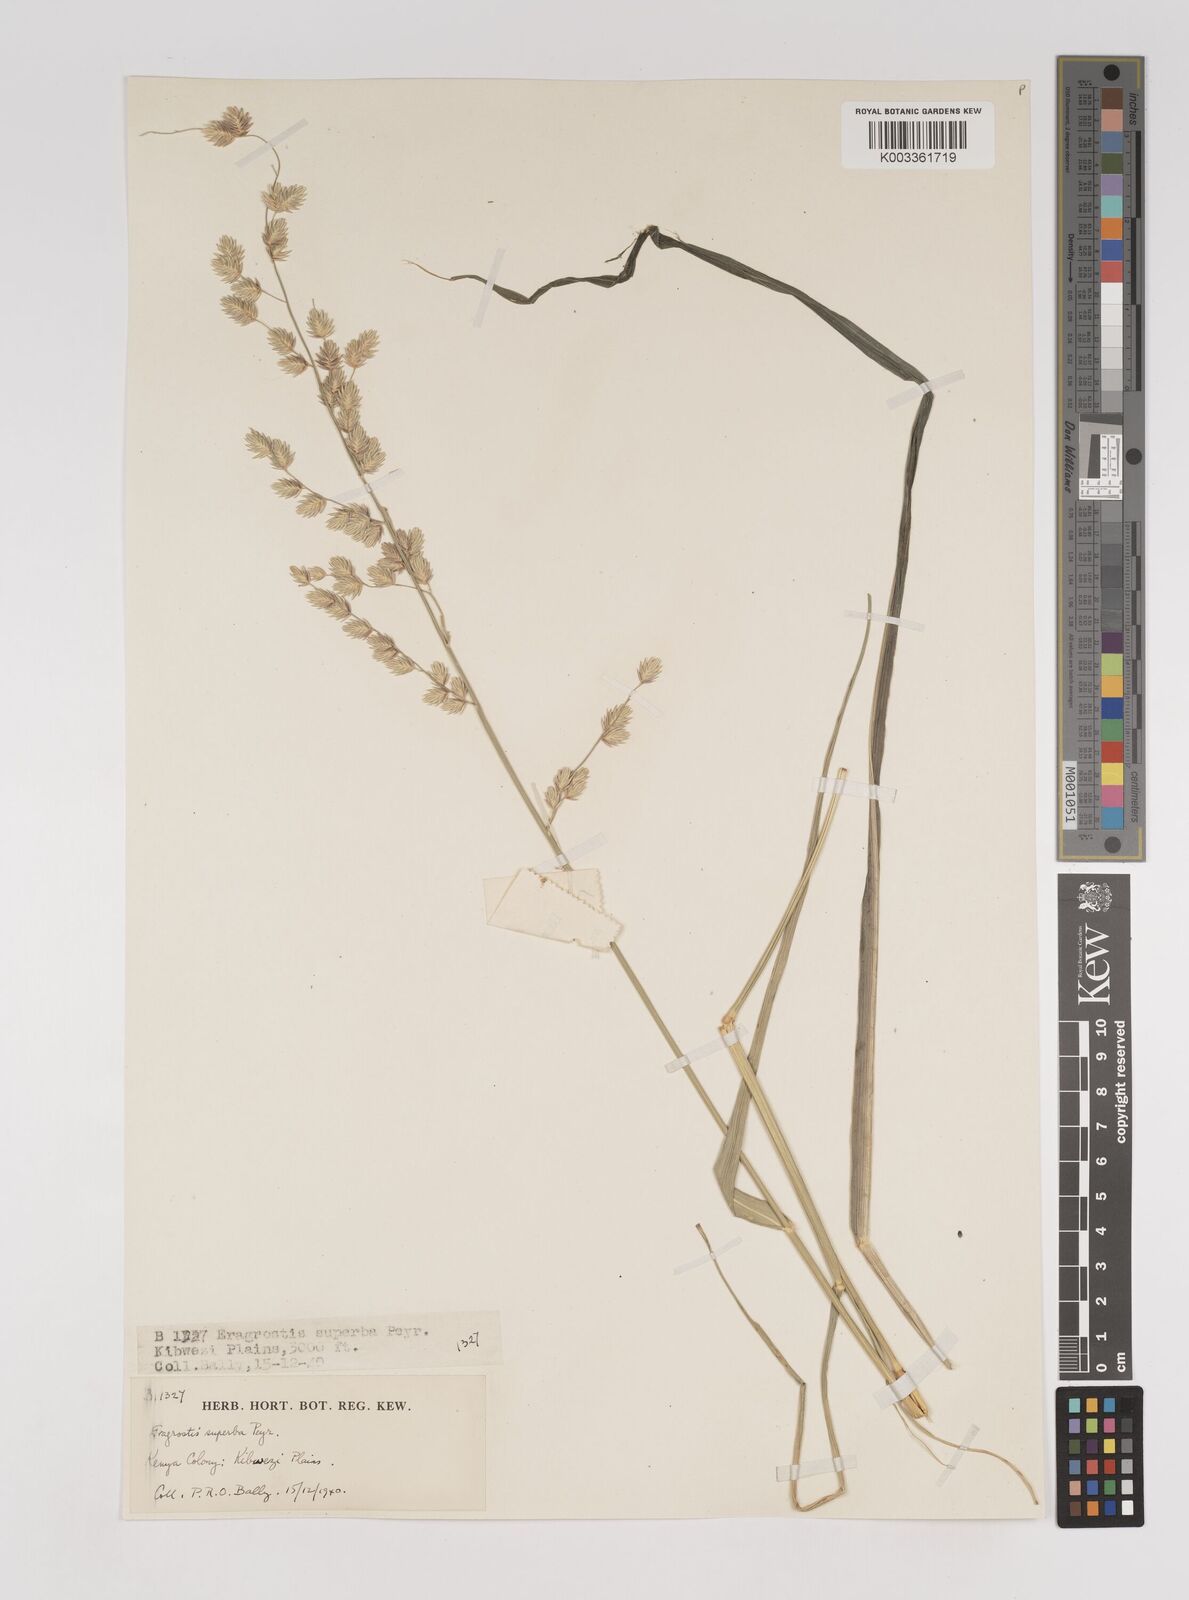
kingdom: Plantae
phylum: Tracheophyta
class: Liliopsida
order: Poales
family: Poaceae
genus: Eragrostis
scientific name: Eragrostis superba
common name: Wilman lovegrass
